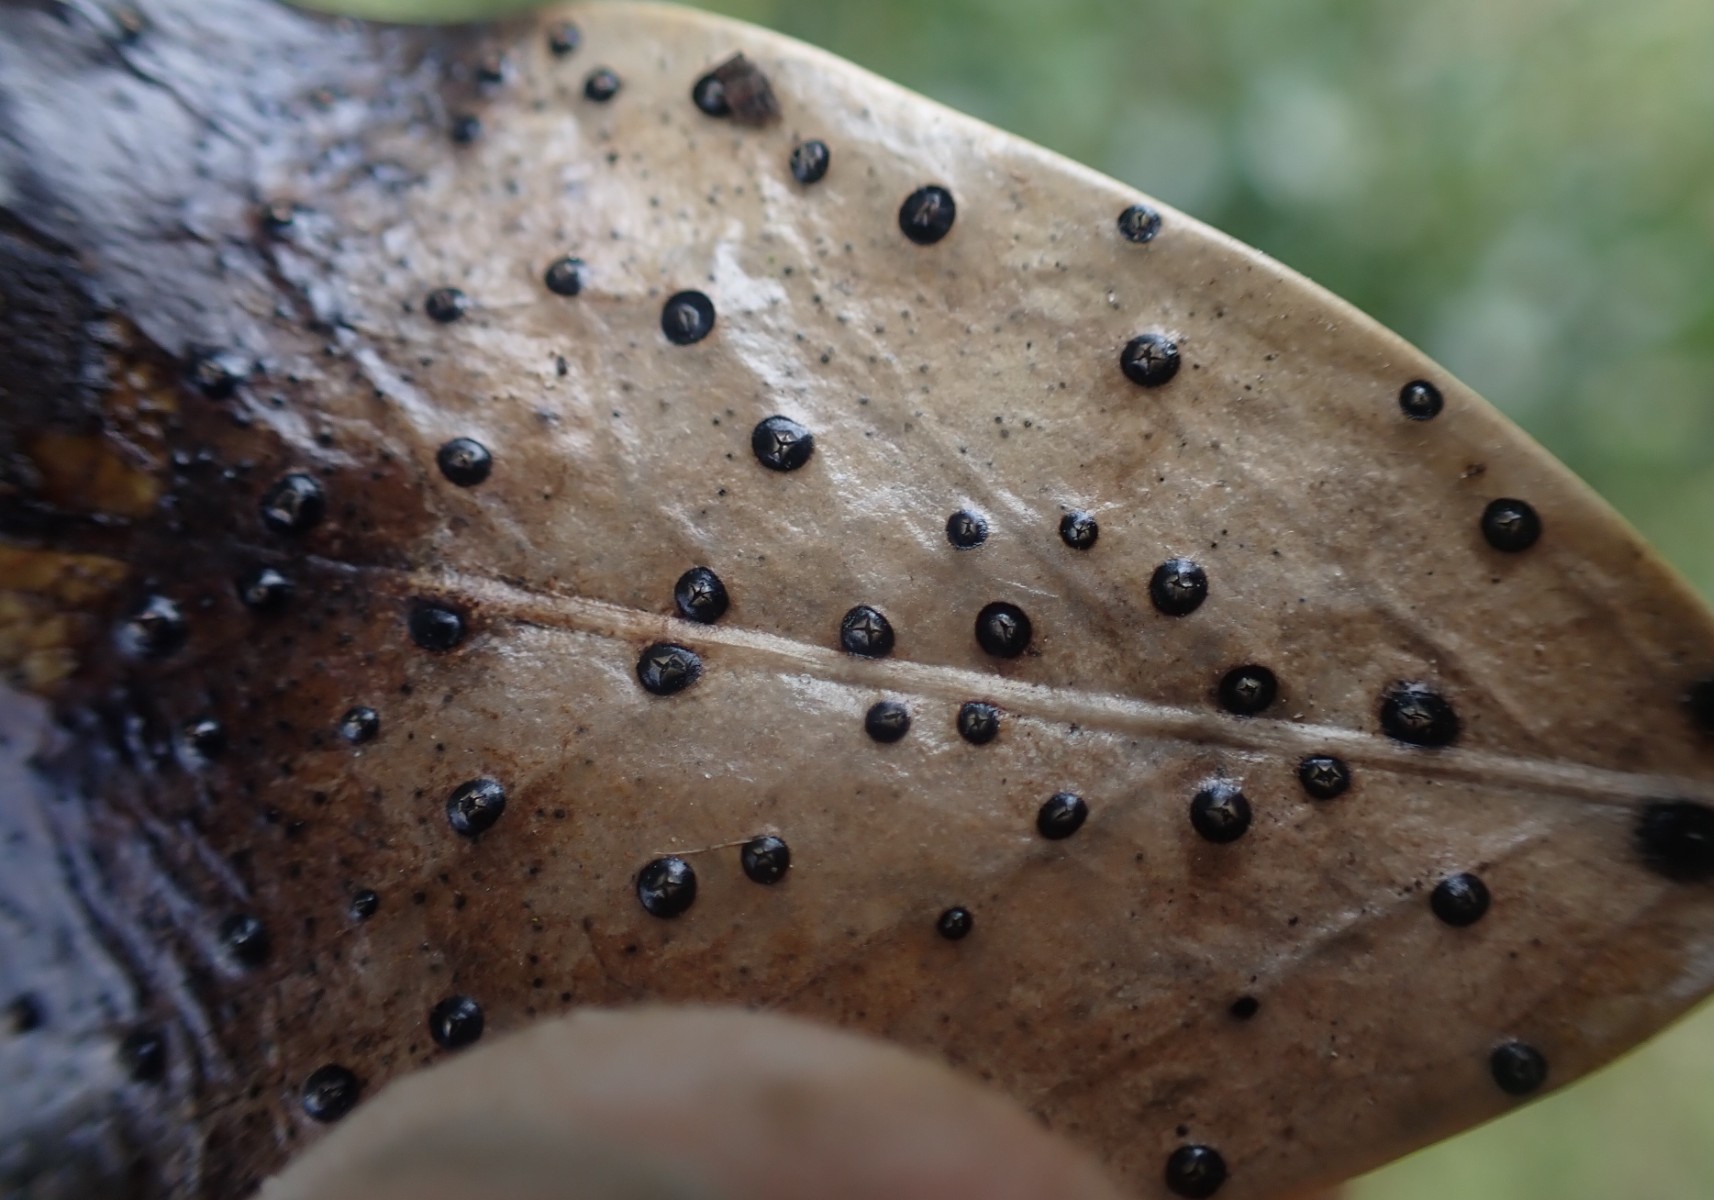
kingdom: Fungi
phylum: Ascomycota
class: Leotiomycetes
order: Phacidiales
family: Phacidiaceae
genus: Phacidium
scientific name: Phacidium lauri
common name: kristtorn-tandskive
